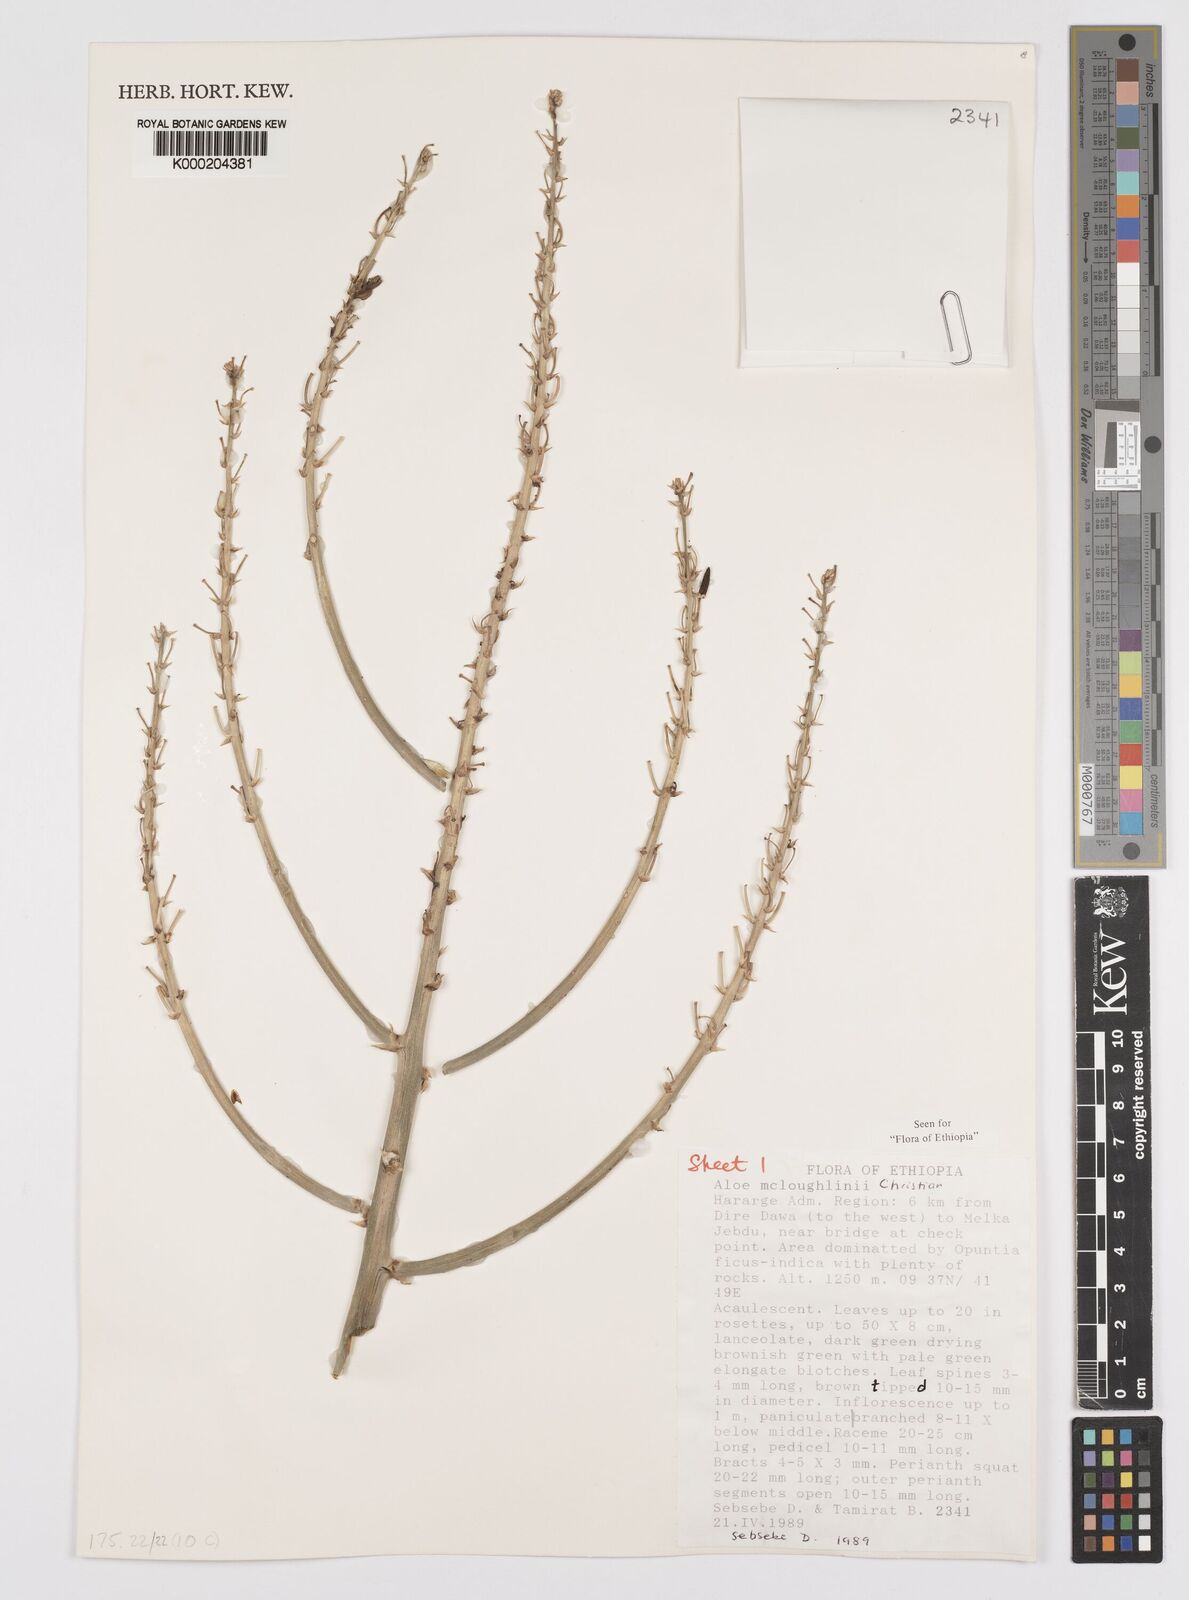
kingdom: Plantae
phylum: Tracheophyta
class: Liliopsida
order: Asparagales
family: Asphodelaceae
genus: Aloe
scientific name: Aloe
